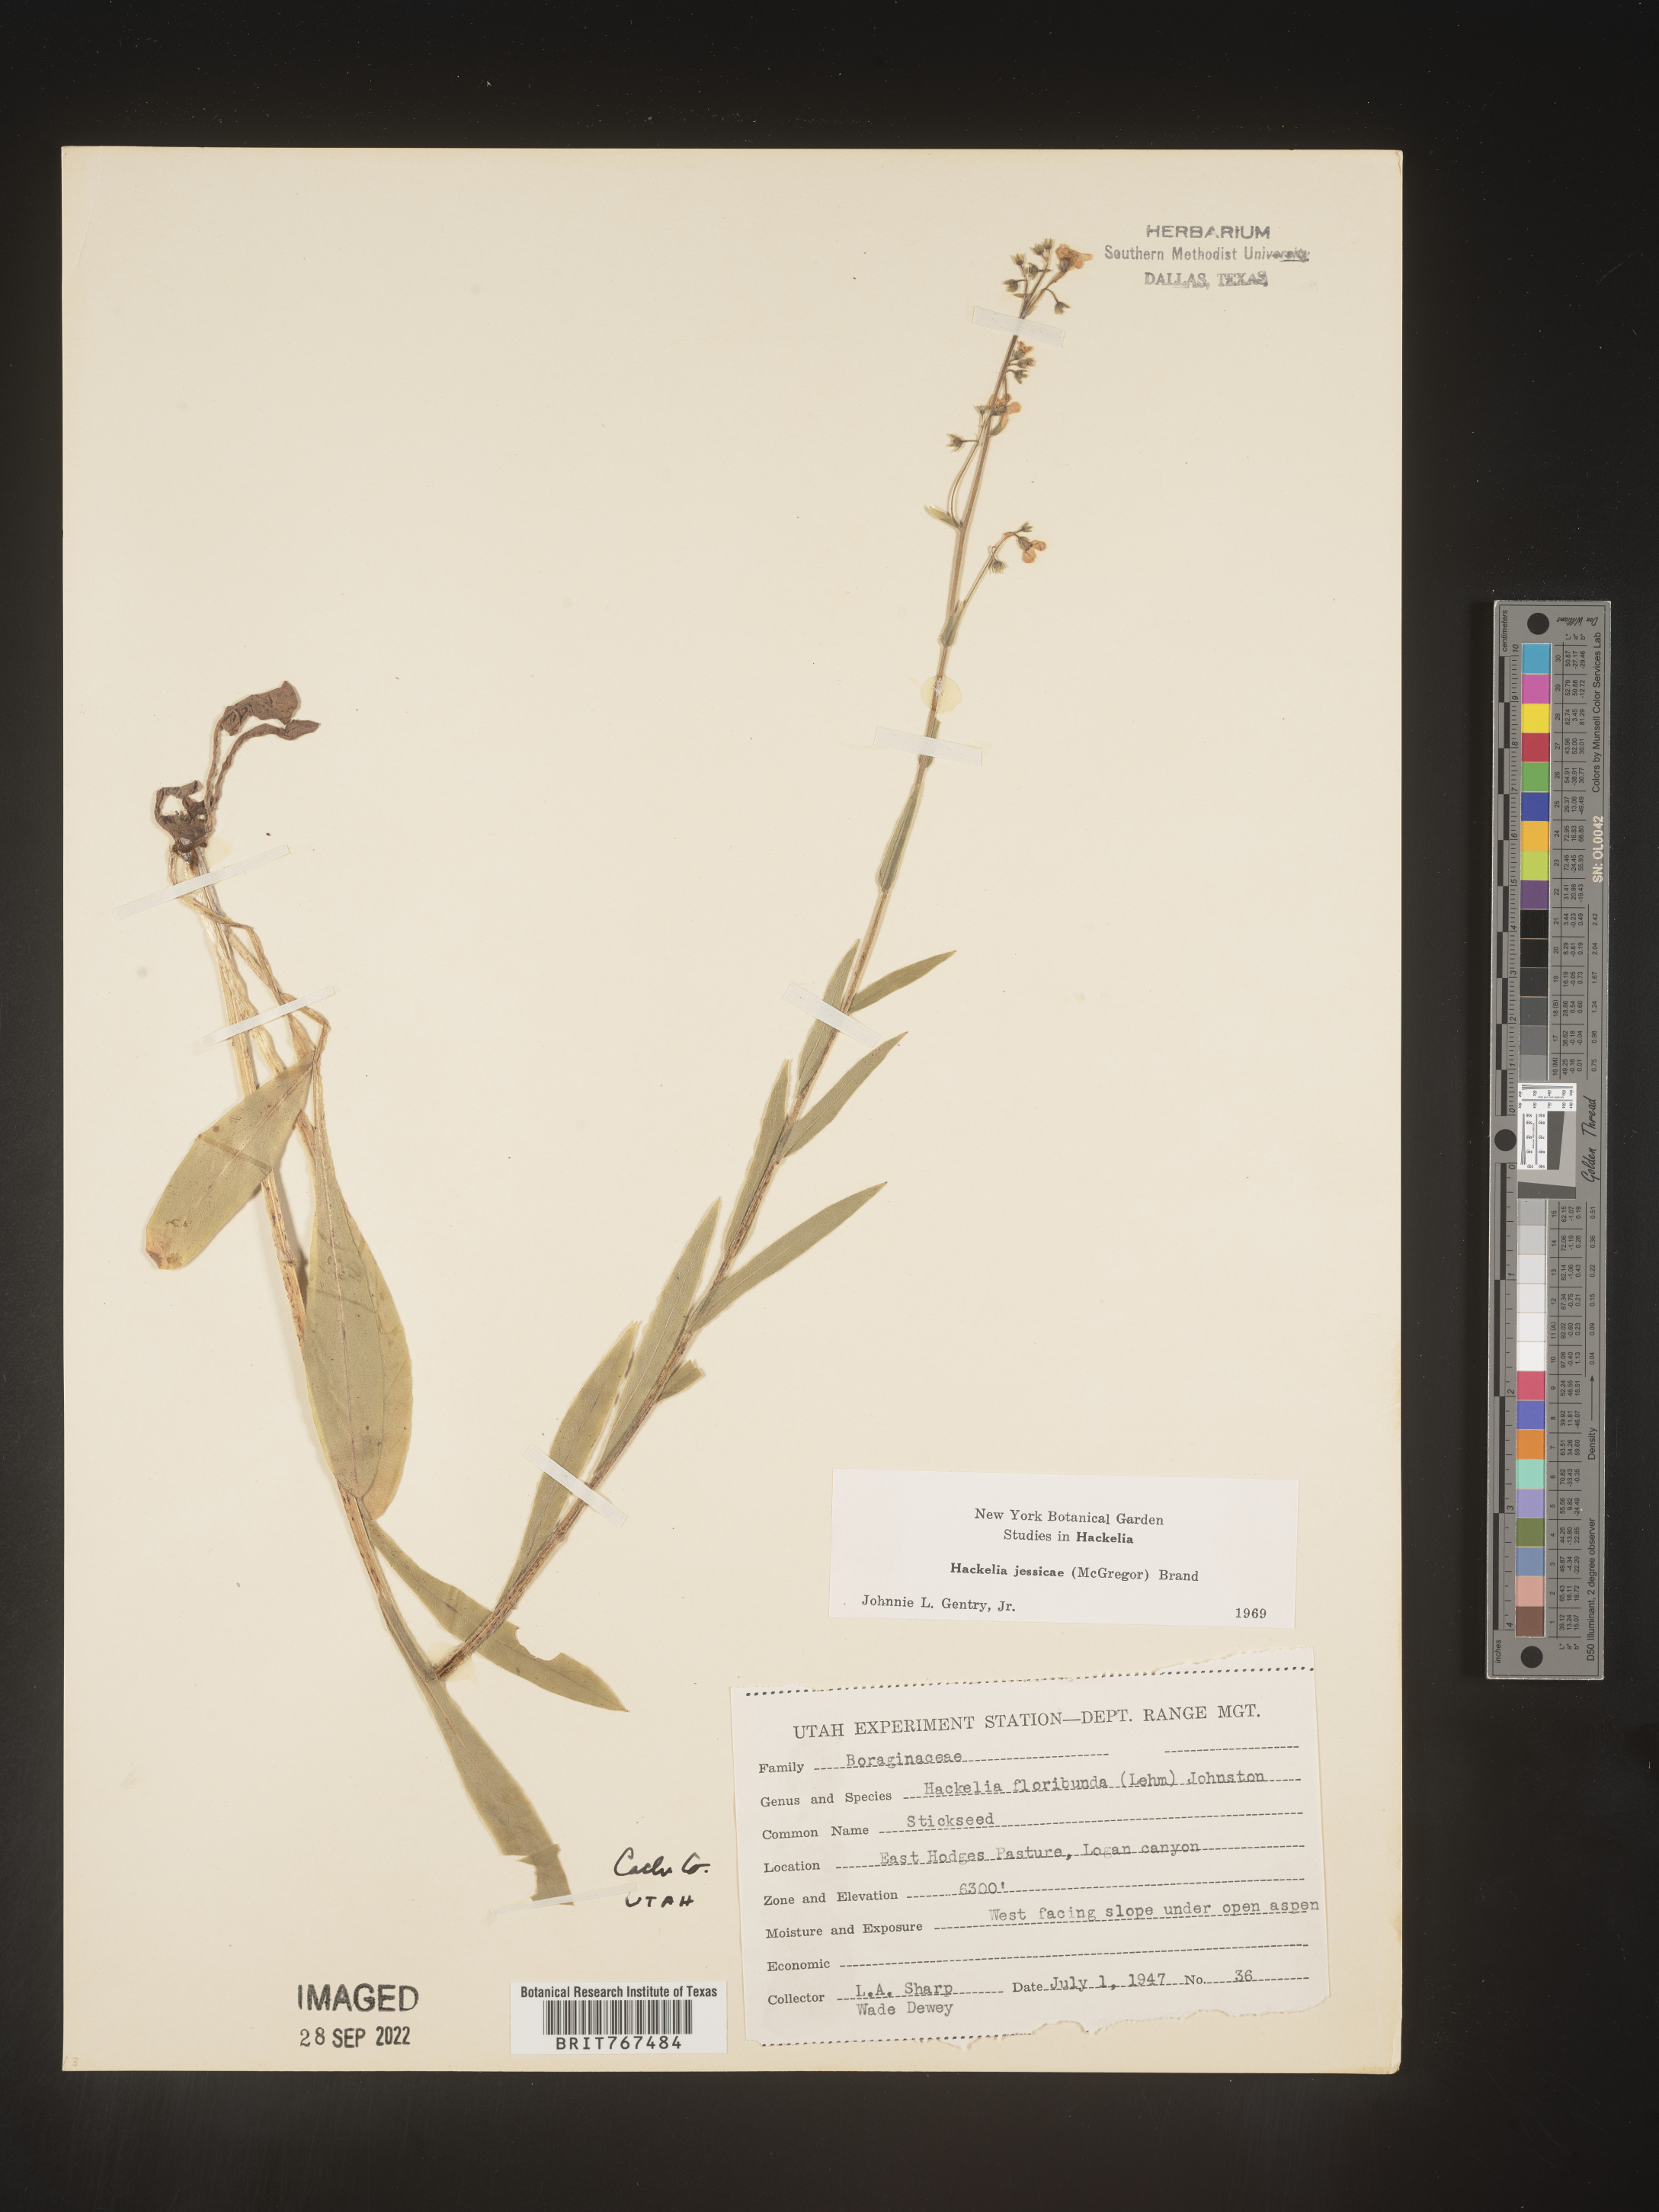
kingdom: Plantae
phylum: Tracheophyta
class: Magnoliopsida
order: Boraginales
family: Boraginaceae
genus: Hackelia
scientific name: Hackelia micrantha
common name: Meadow stickseed
